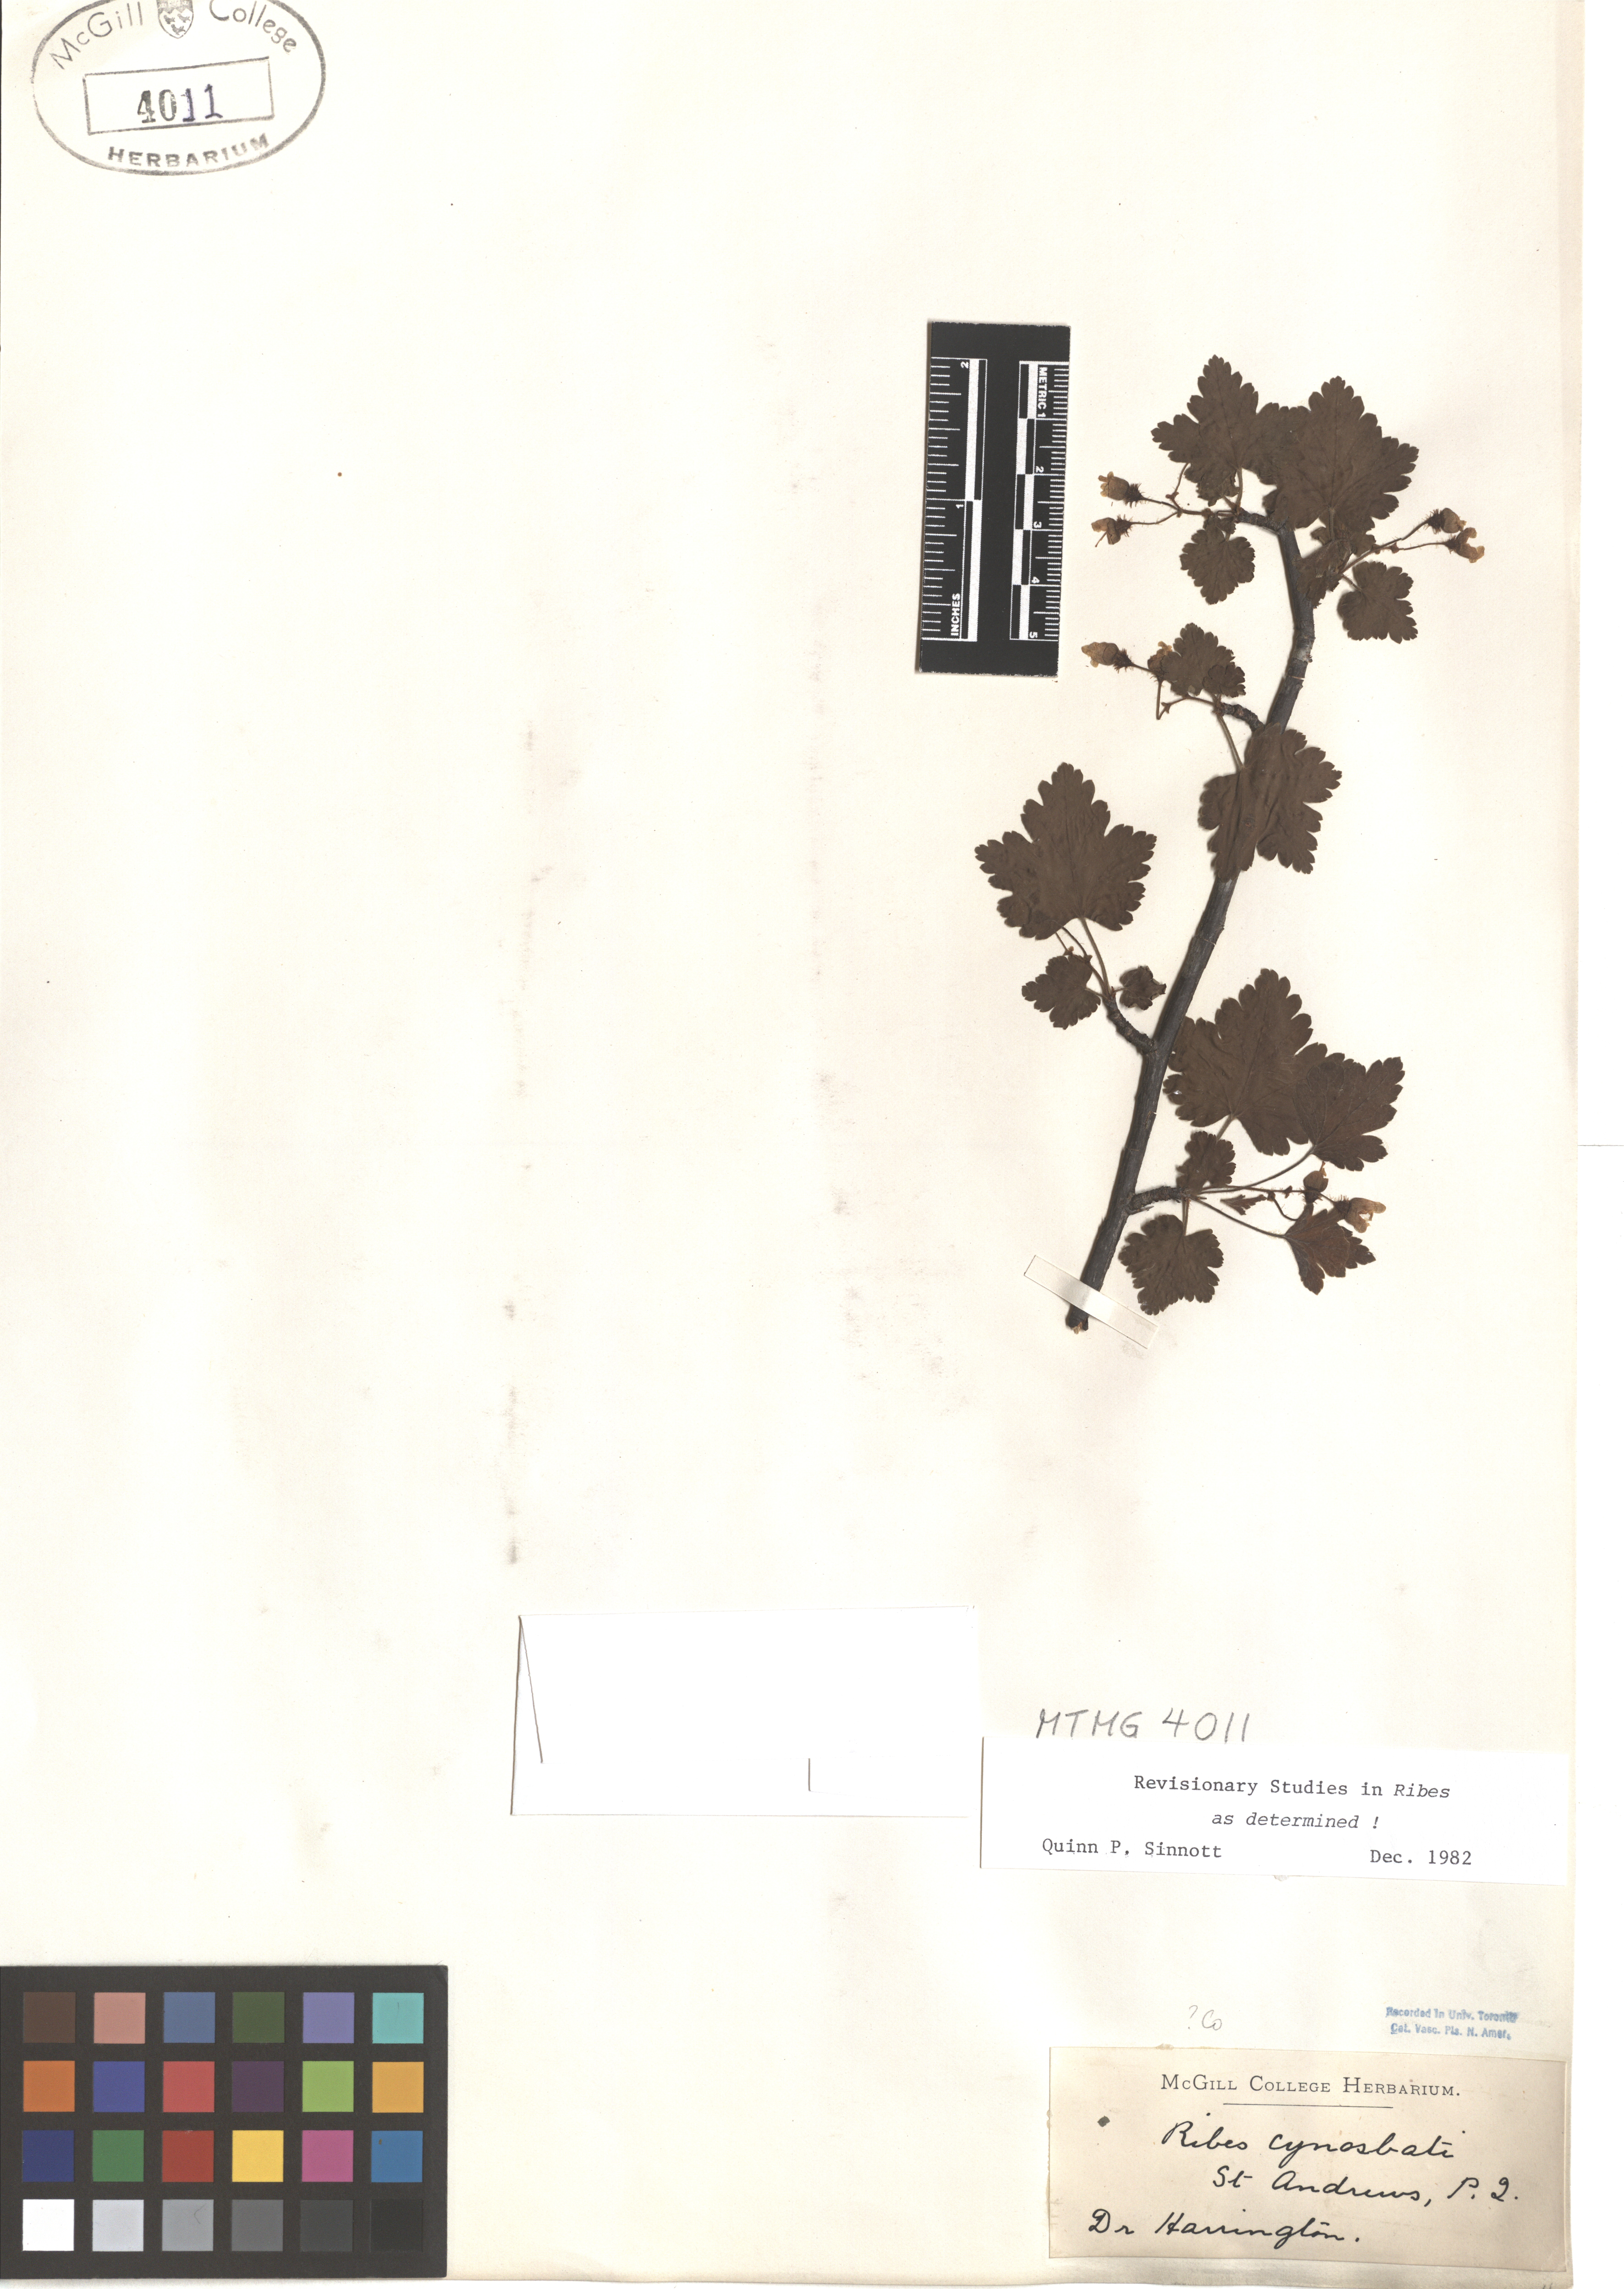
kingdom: Plantae
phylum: Tracheophyta
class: Magnoliopsida
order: Saxifragales
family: Grossulariaceae
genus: Ribes
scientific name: Ribes cynosbati
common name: American gooseberry
